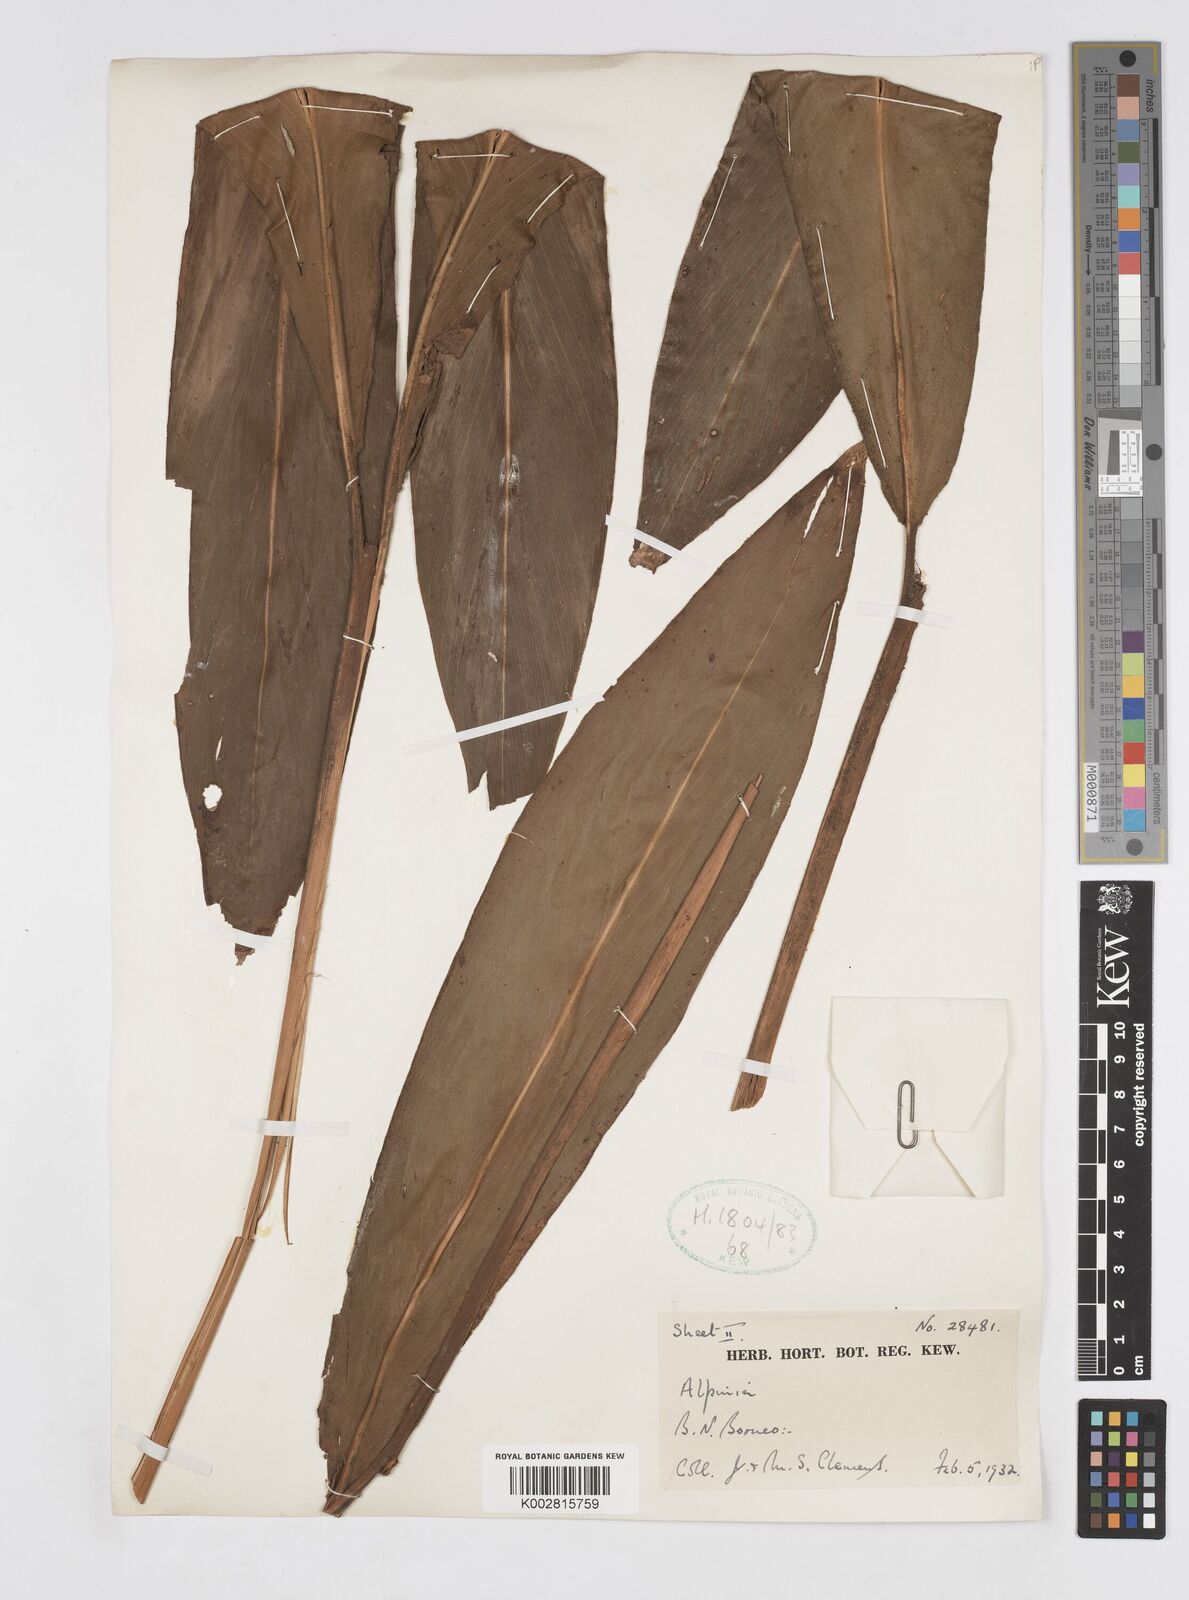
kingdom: Plantae
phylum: Tracheophyta
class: Liliopsida
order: Zingiberales
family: Zingiberaceae
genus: Alpinia
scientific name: Alpinia havilandii
